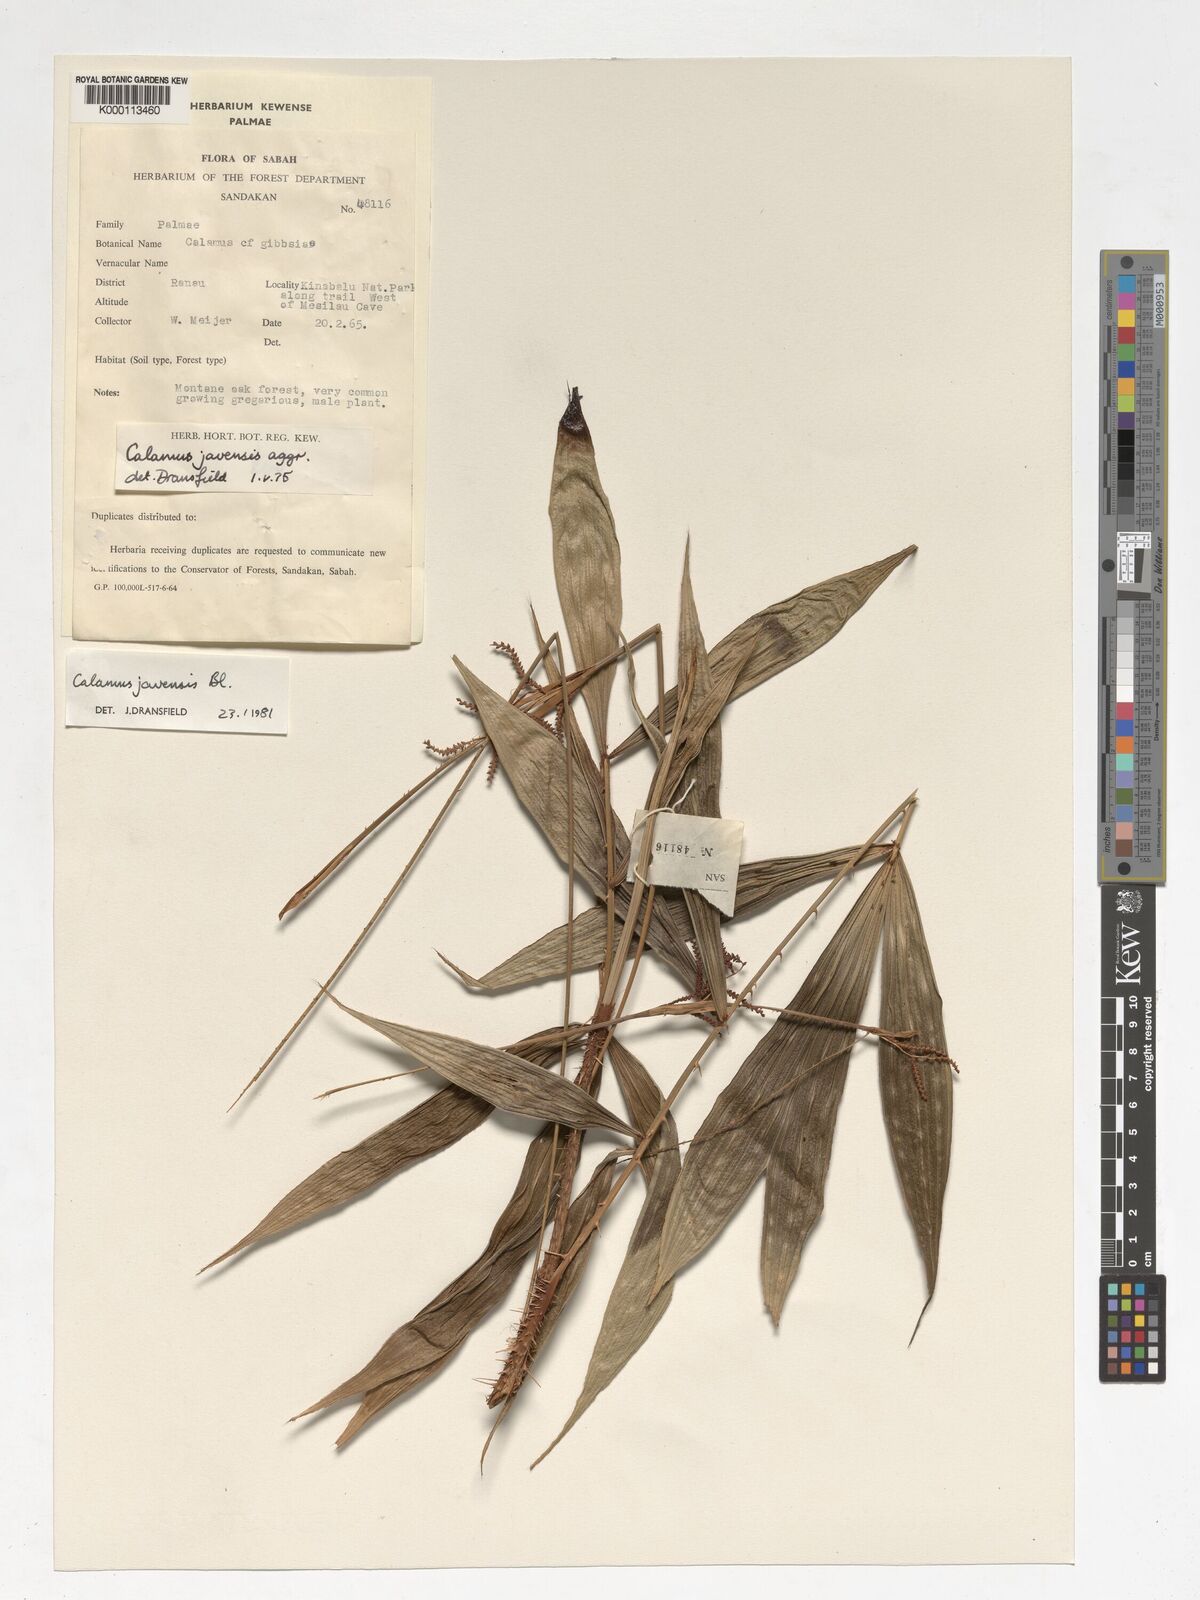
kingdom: Plantae
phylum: Tracheophyta
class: Liliopsida
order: Arecales
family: Arecaceae
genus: Calamus
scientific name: Calamus javensis
